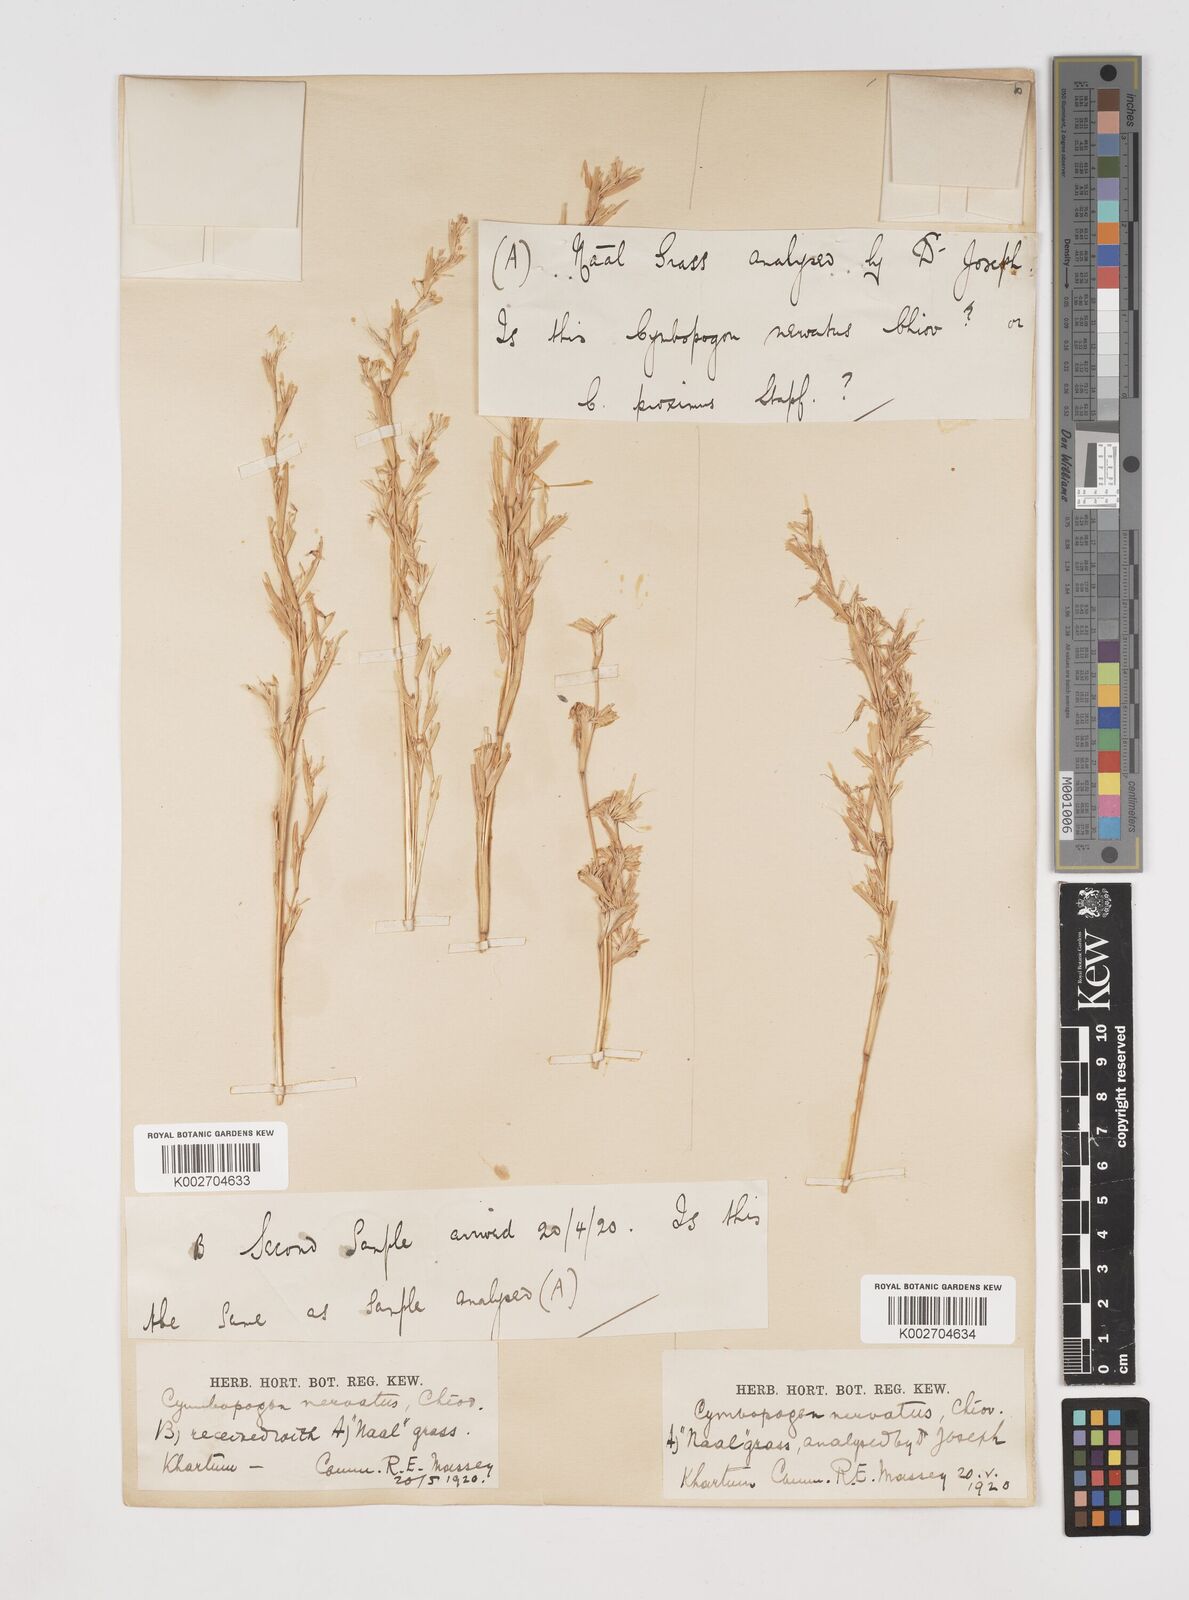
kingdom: Plantae
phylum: Tracheophyta
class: Liliopsida
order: Poales
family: Poaceae
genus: Cymbopogon
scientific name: Cymbopogon nervatus
